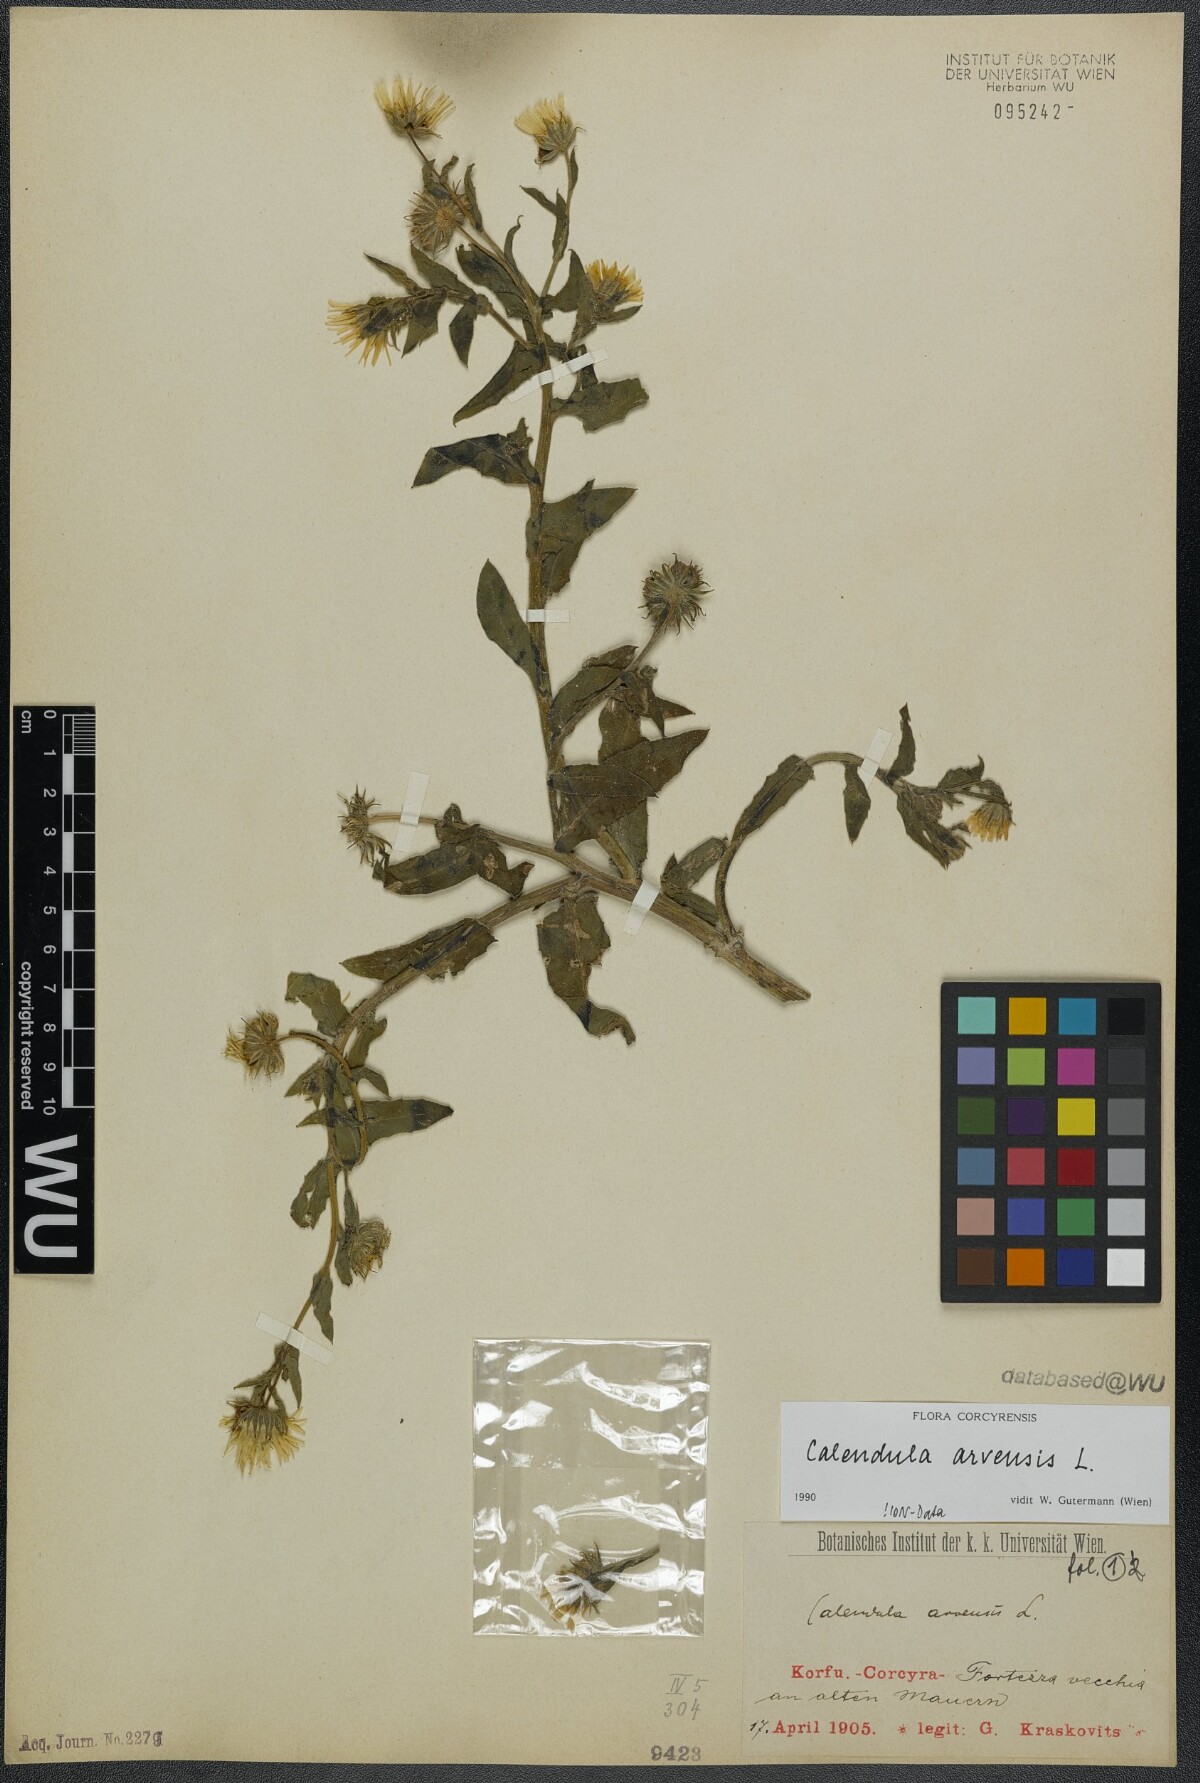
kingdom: Plantae
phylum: Tracheophyta
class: Magnoliopsida
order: Asterales
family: Asteraceae
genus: Calendula
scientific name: Calendula arvensis
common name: Field marigold
